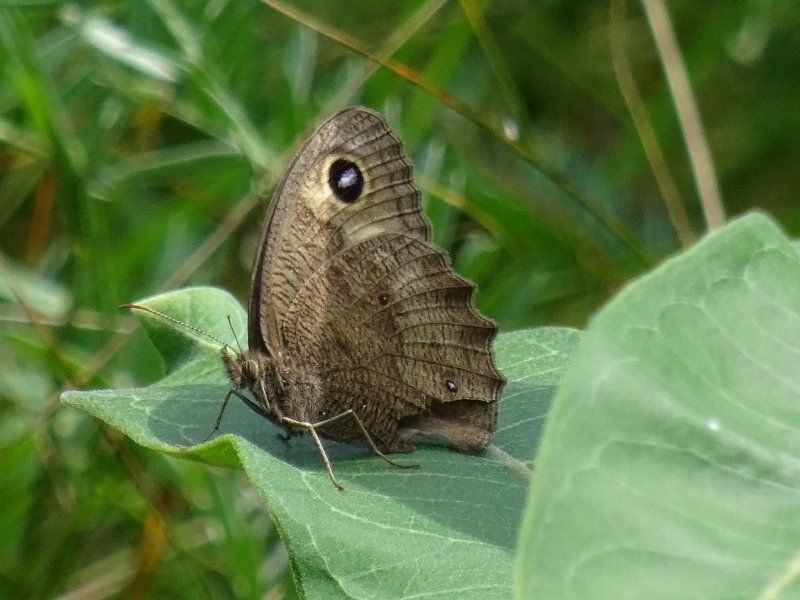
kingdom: Animalia
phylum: Arthropoda
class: Insecta
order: Lepidoptera
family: Nymphalidae
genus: Cercyonis
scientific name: Cercyonis pegala
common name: Common Wood-Nymph
